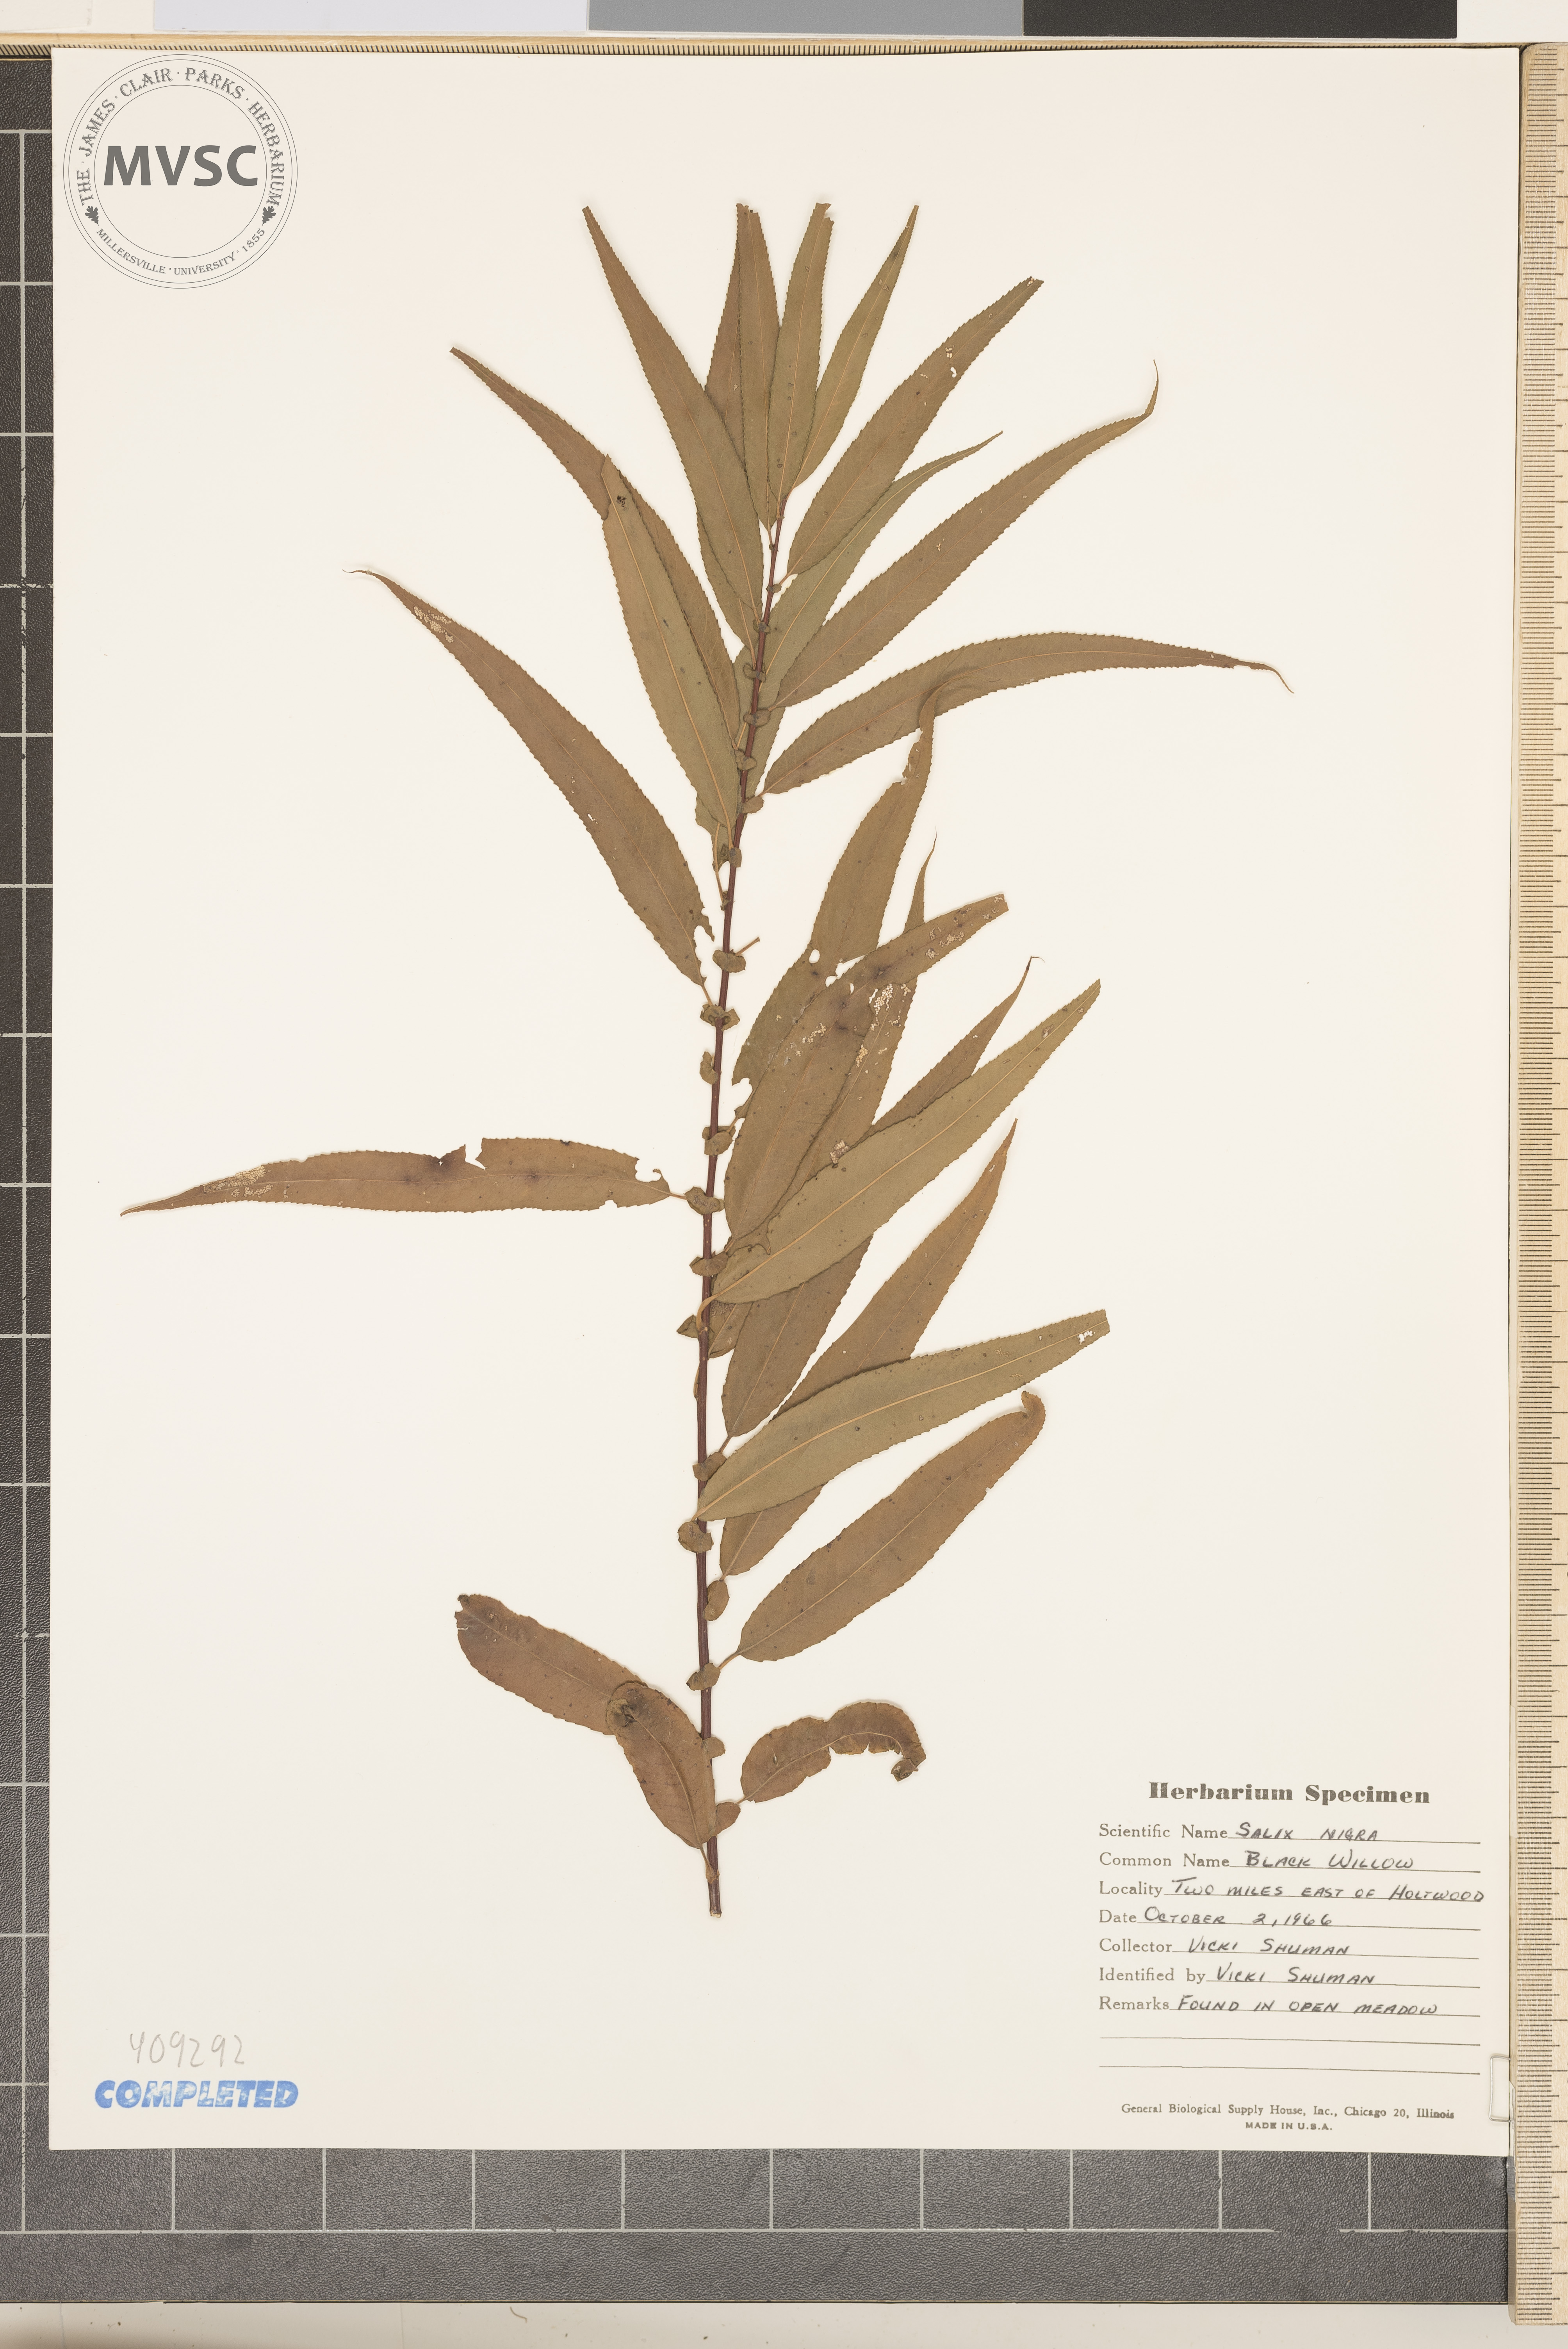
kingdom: Plantae
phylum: Tracheophyta
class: Magnoliopsida
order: Malpighiales
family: Salicaceae
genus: Salix
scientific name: Salix nigra
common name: Black willow
